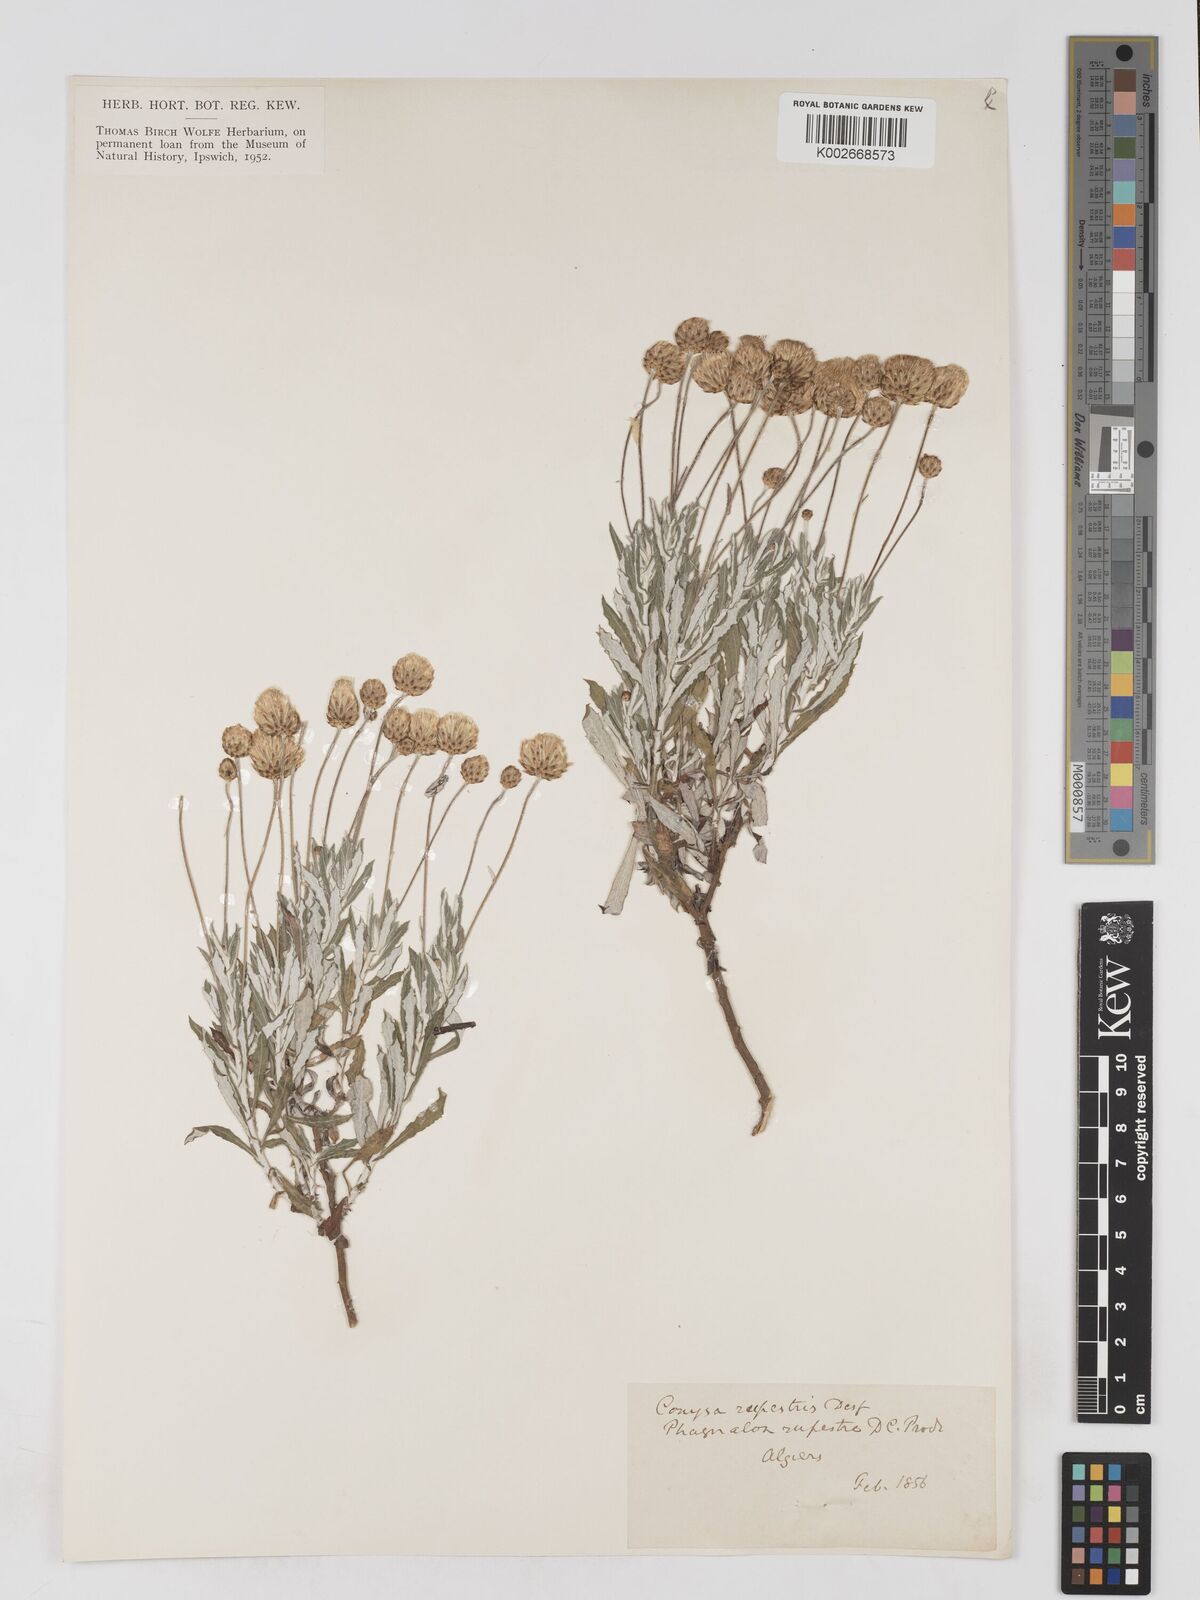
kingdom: Plantae
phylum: Tracheophyta
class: Magnoliopsida
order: Asterales
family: Asteraceae
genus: Phagnalon
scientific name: Phagnalon rupestre
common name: Rock phagnalon
